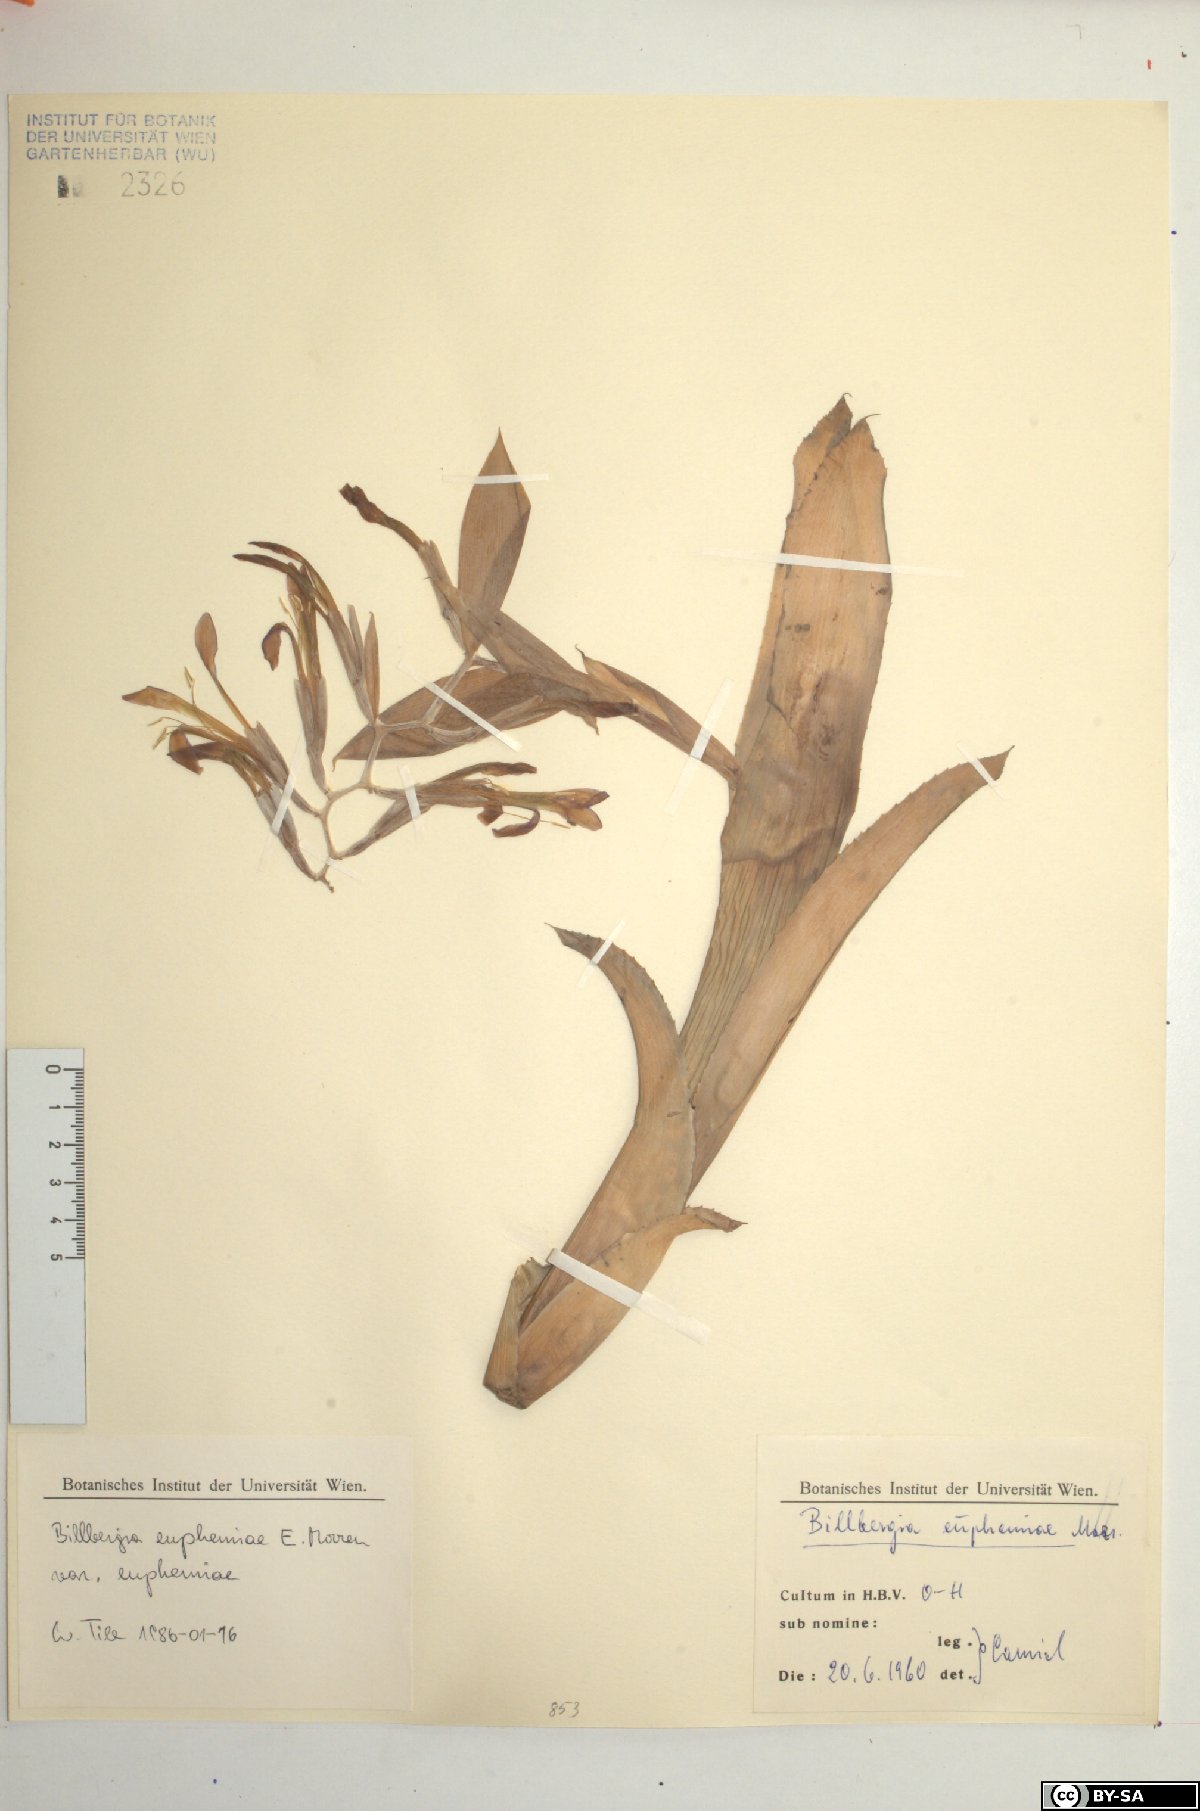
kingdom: Plantae
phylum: Tracheophyta
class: Liliopsida
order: Poales
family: Bromeliaceae
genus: Billbergia
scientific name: Billbergia euphemiae
